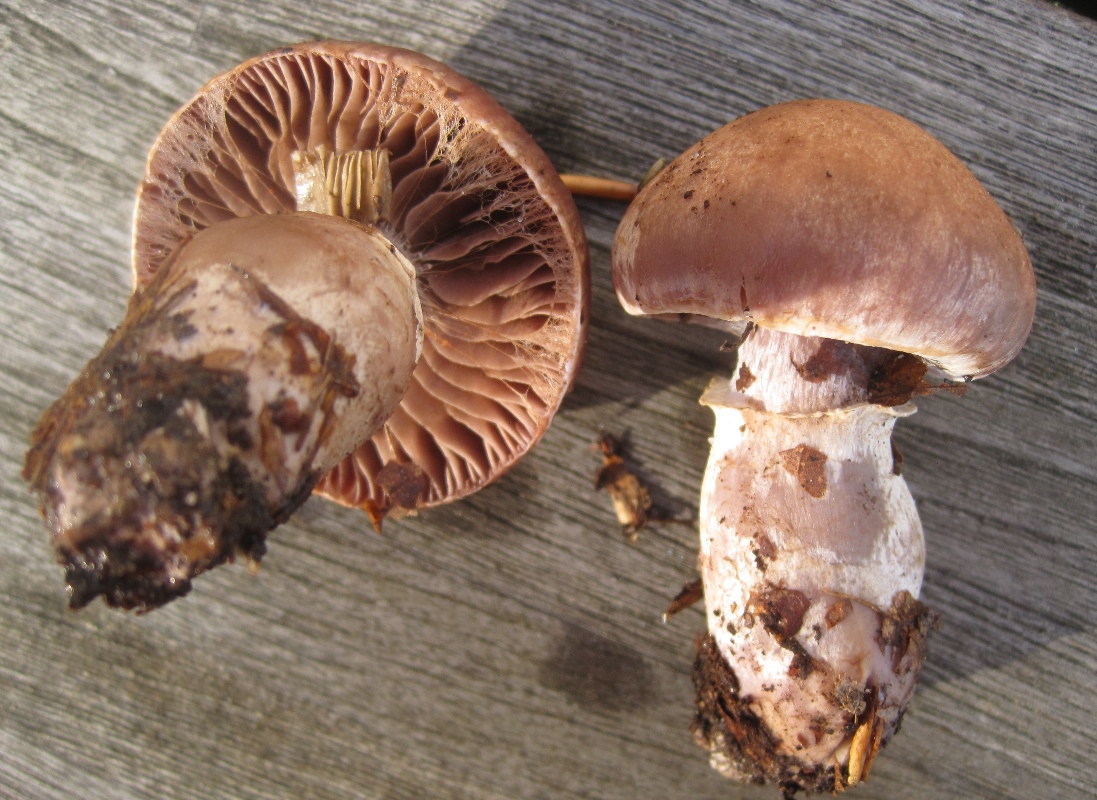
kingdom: Fungi
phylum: Basidiomycota
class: Agaricomycetes
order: Agaricales
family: Cortinariaceae
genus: Cortinarius
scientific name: Cortinarius torvus
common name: champignonagtig slørhat
